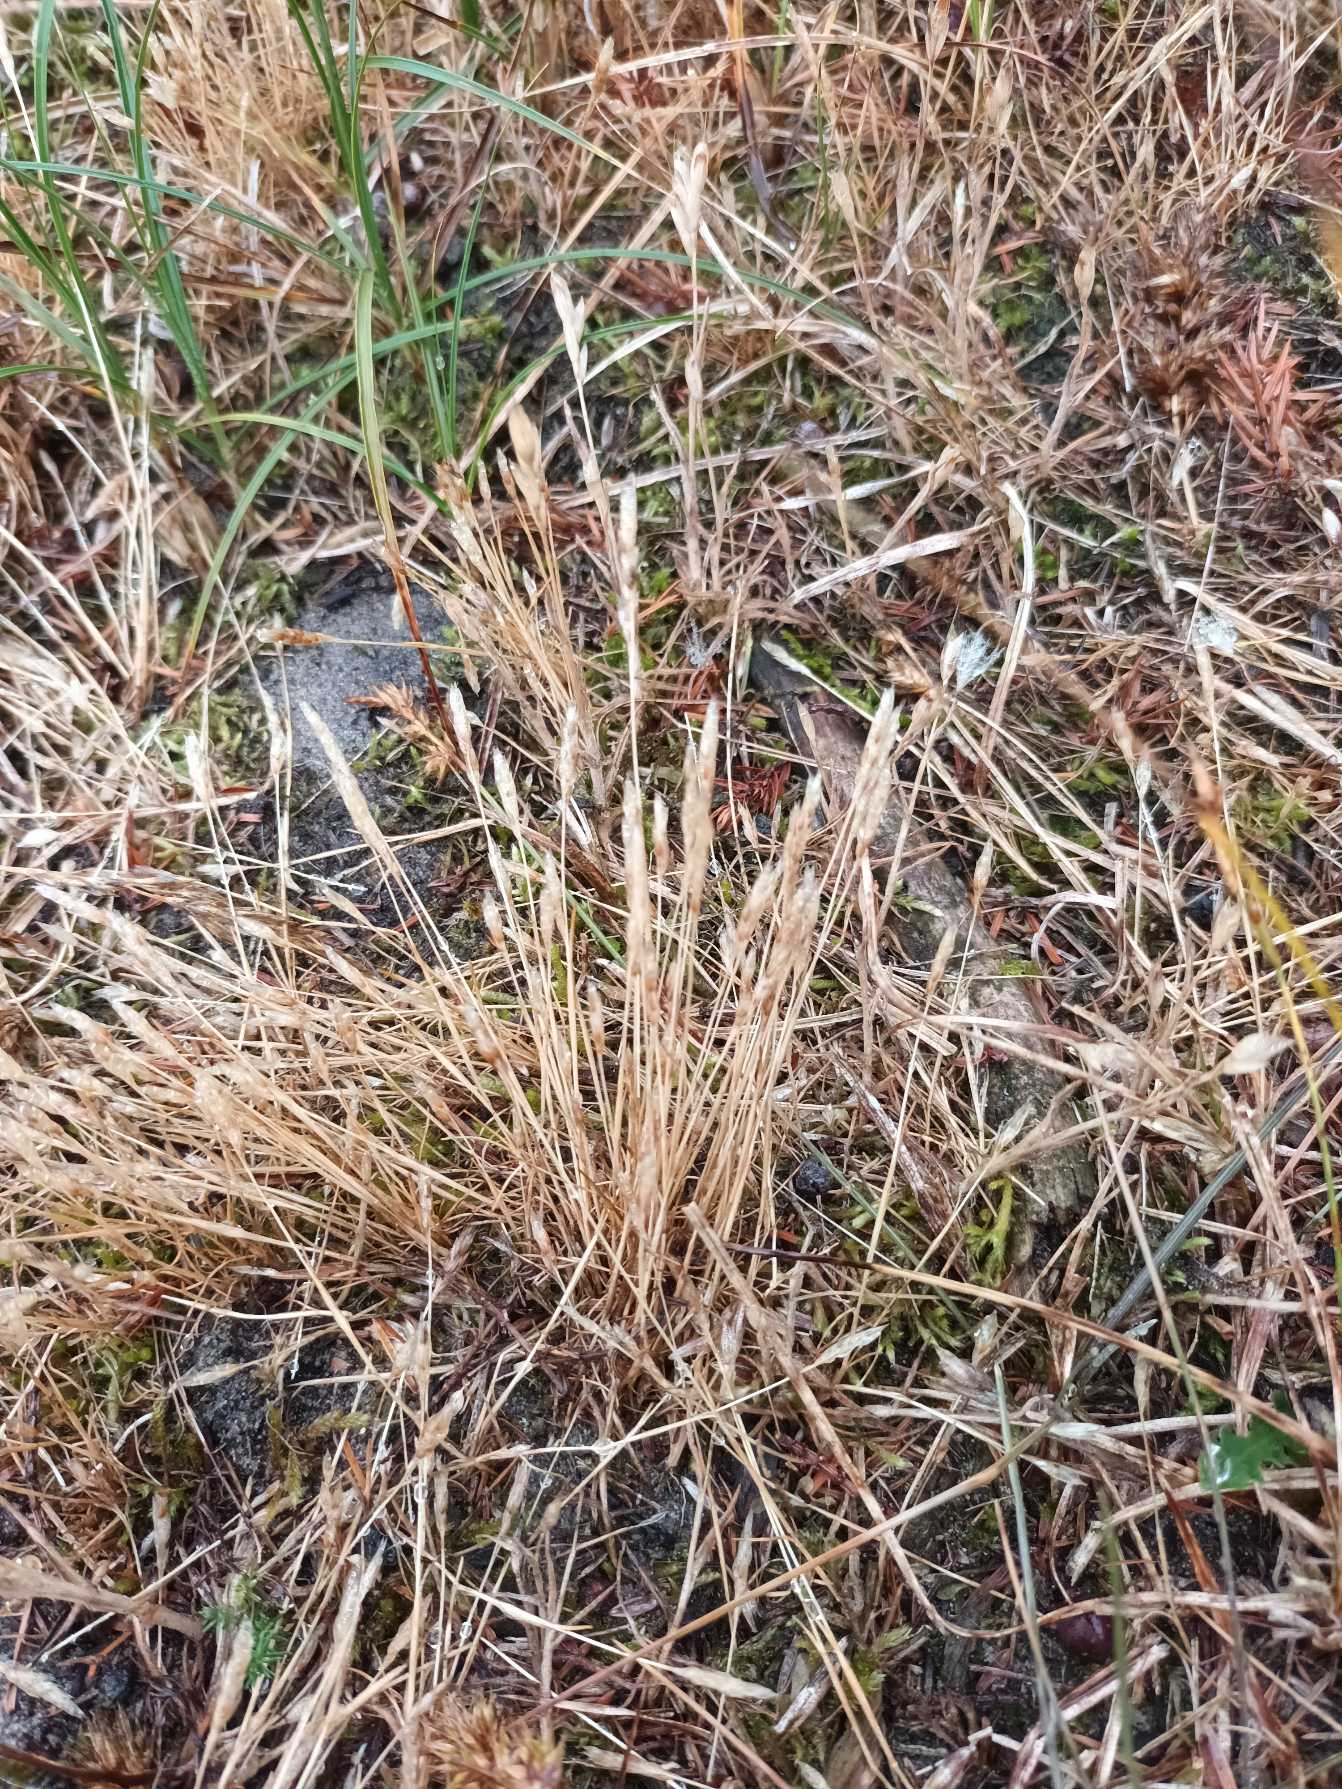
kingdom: Plantae
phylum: Tracheophyta
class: Liliopsida
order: Poales
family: Poaceae
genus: Aira
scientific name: Aira praecox
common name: Tidlig dværgbunke
